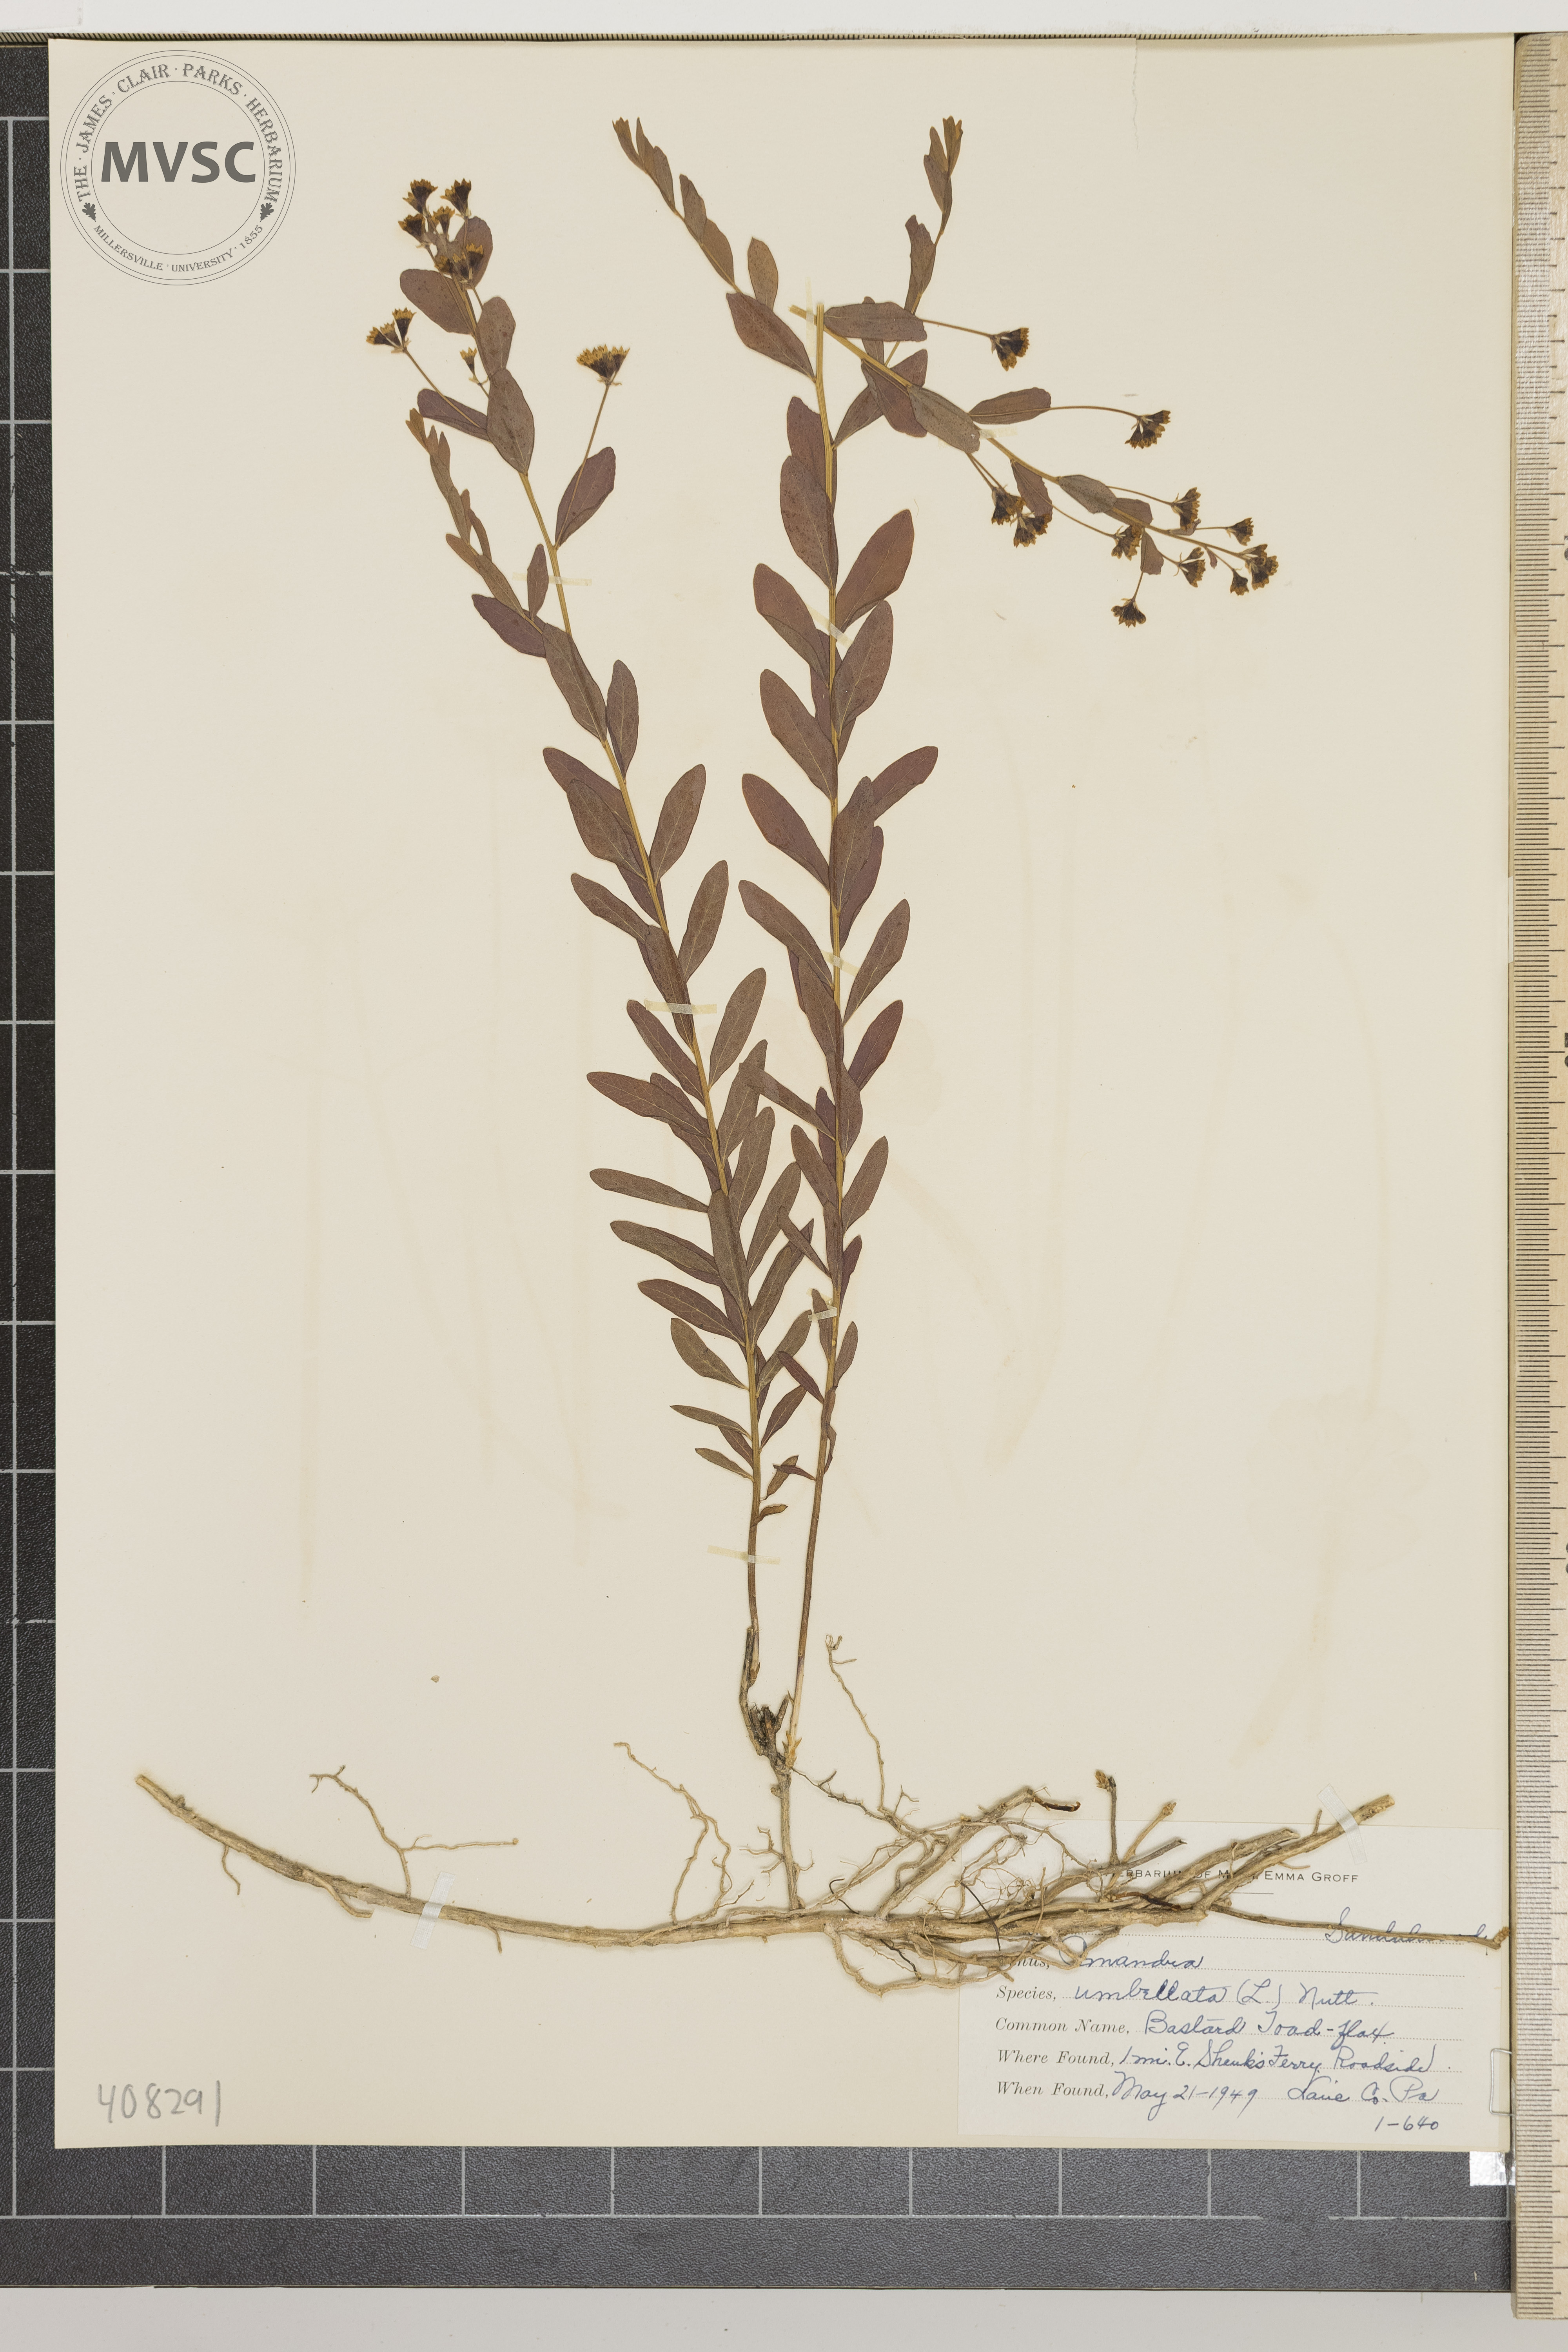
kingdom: Plantae
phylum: Tracheophyta
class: Magnoliopsida
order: Santalales
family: Comandraceae
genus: Comandra
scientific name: Comandra umbellata
